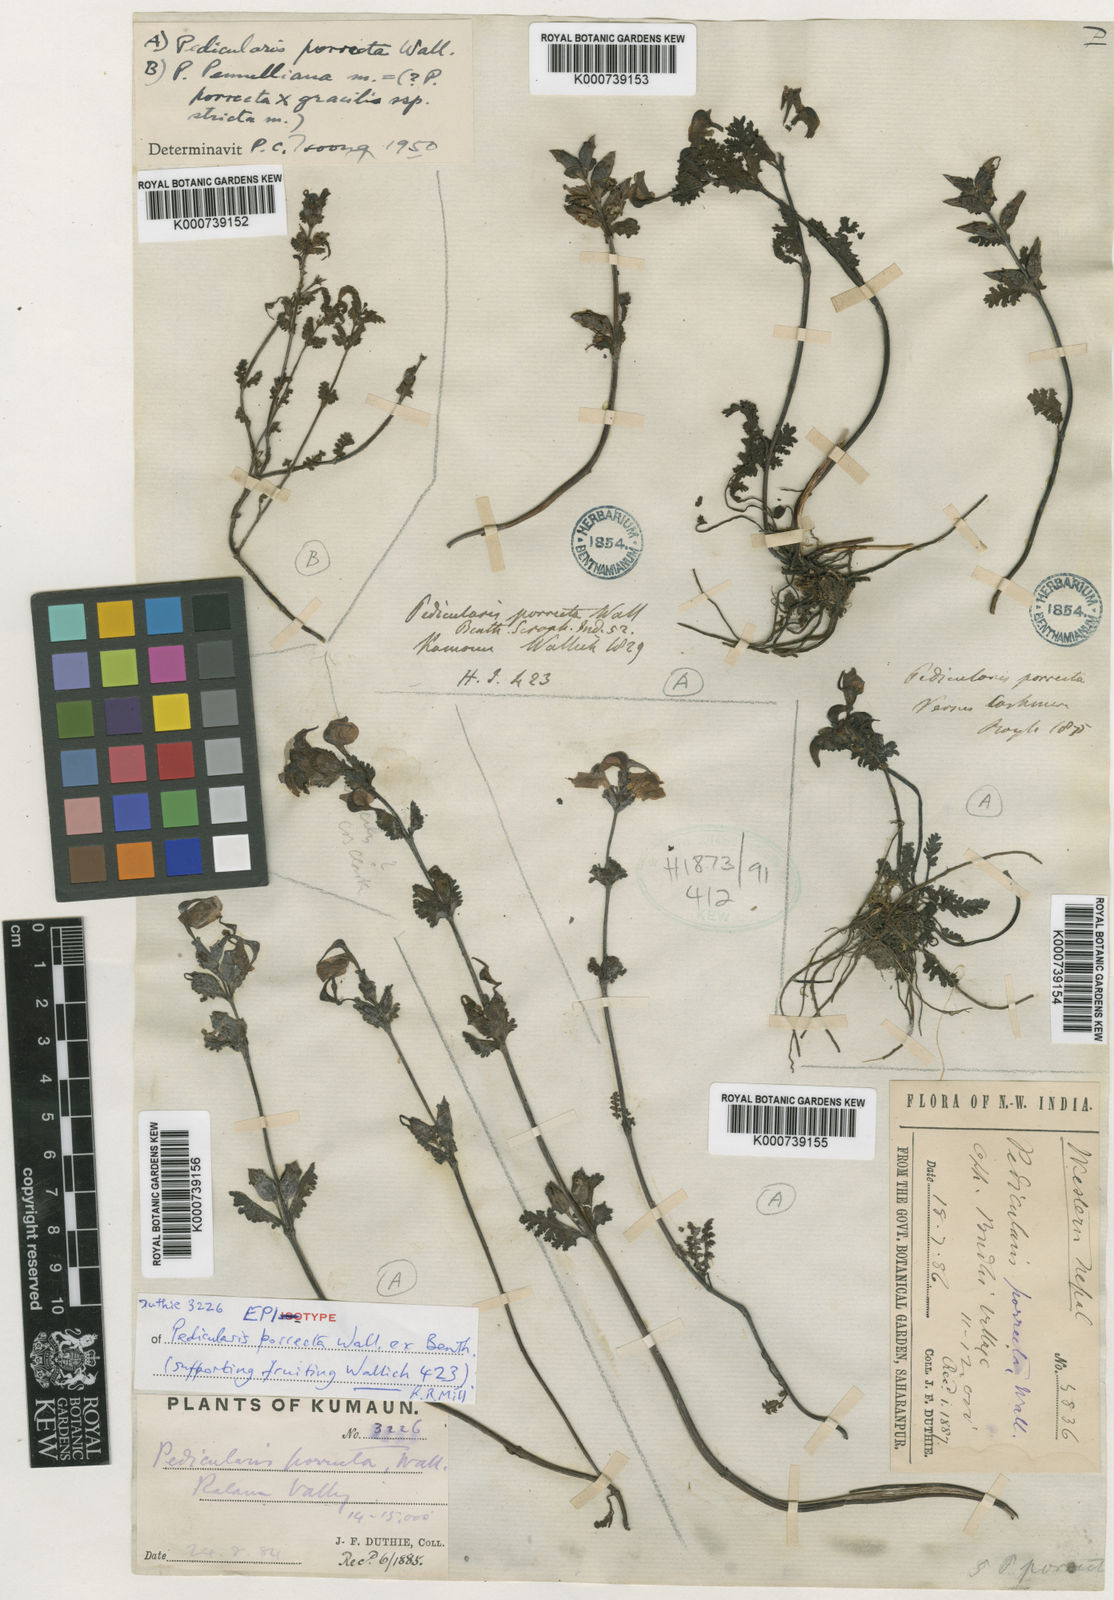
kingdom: Plantae
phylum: Tracheophyta
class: Magnoliopsida
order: Lamiales
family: Orobanchaceae
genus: Pedicularis
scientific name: Pedicularis
